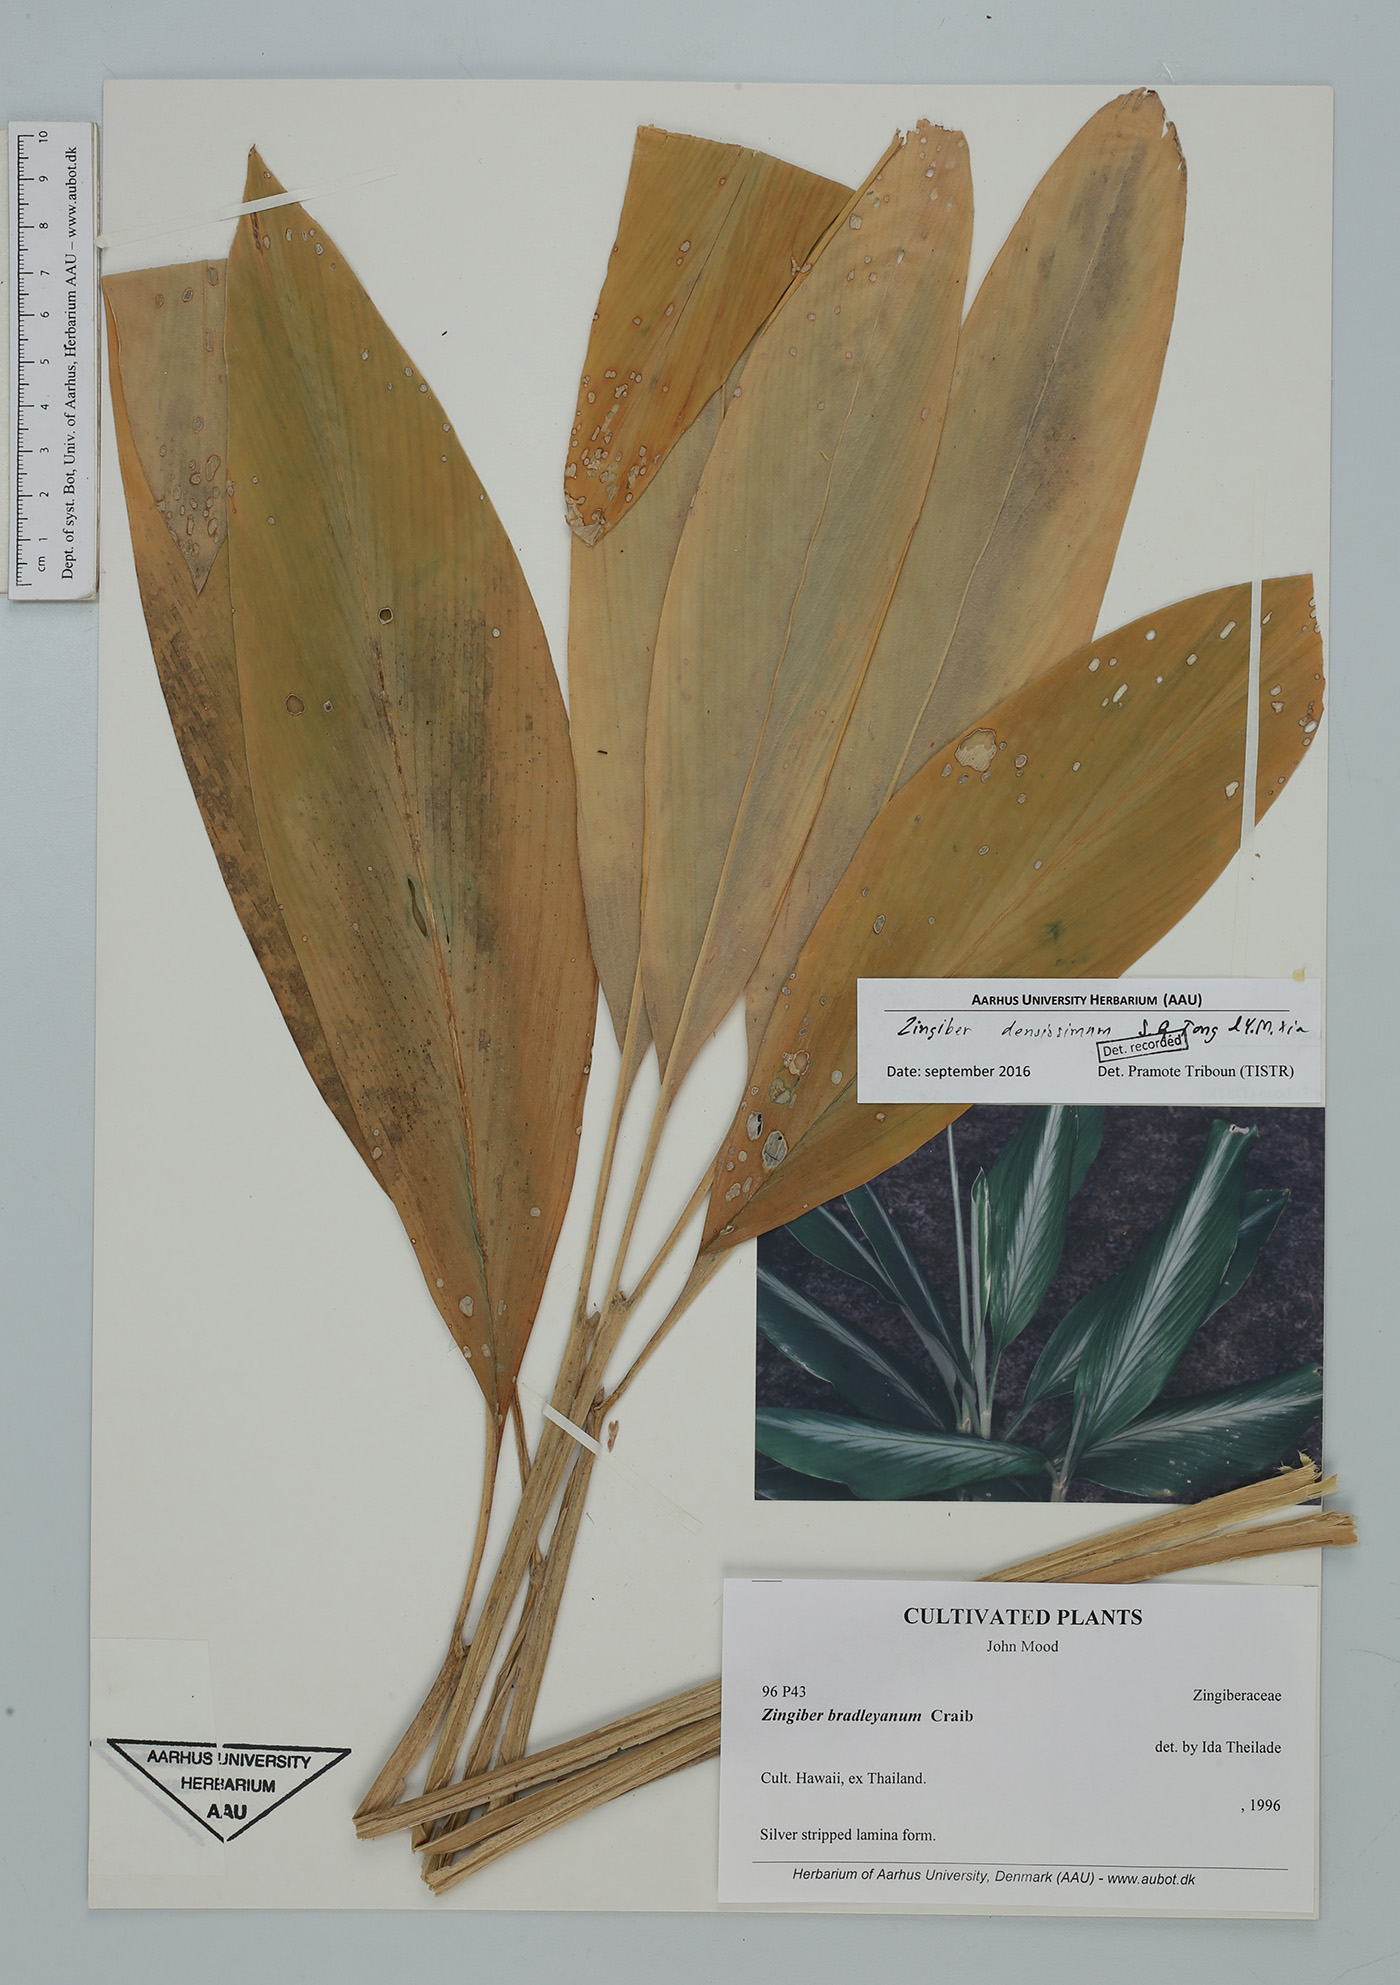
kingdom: Plantae
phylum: Tracheophyta
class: Liliopsida
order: Zingiberales
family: Zingiberaceae
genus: Zingiber
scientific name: Zingiber densissimum
